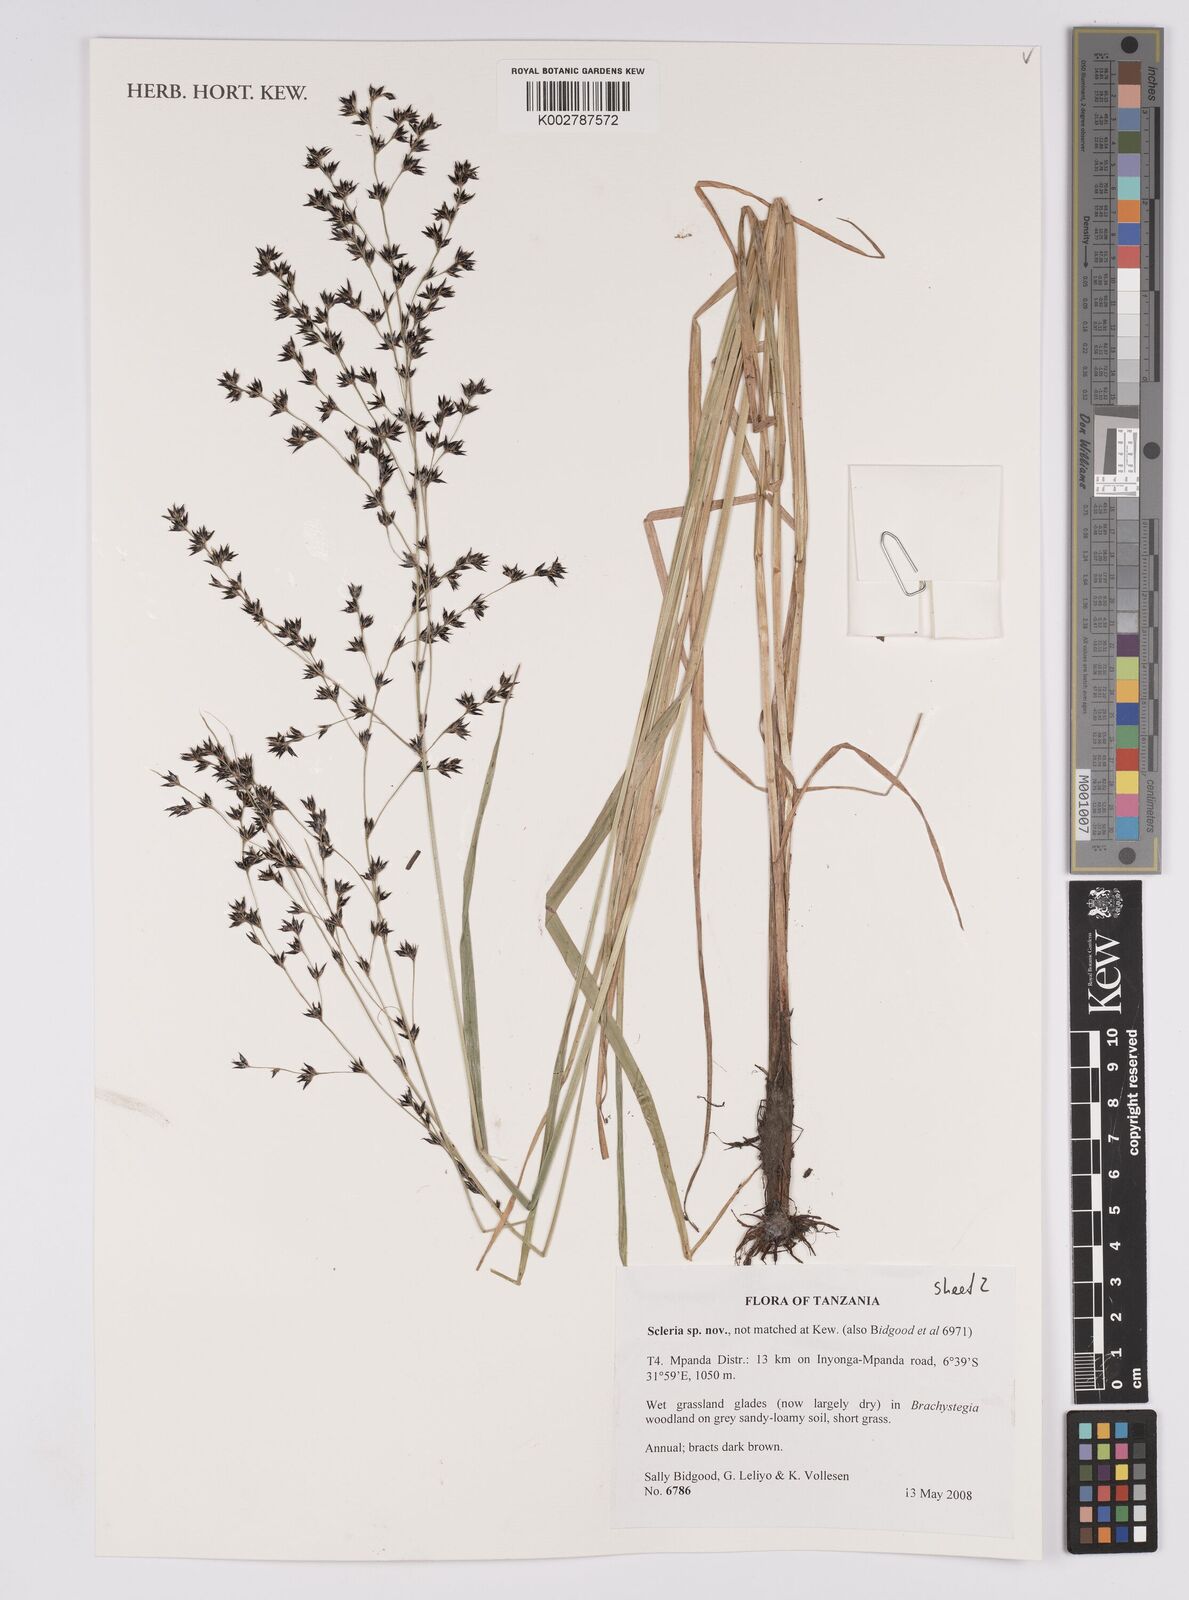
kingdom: Plantae
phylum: Tracheophyta
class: Liliopsida
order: Poales
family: Cyperaceae
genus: Scleria
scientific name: Scleria
